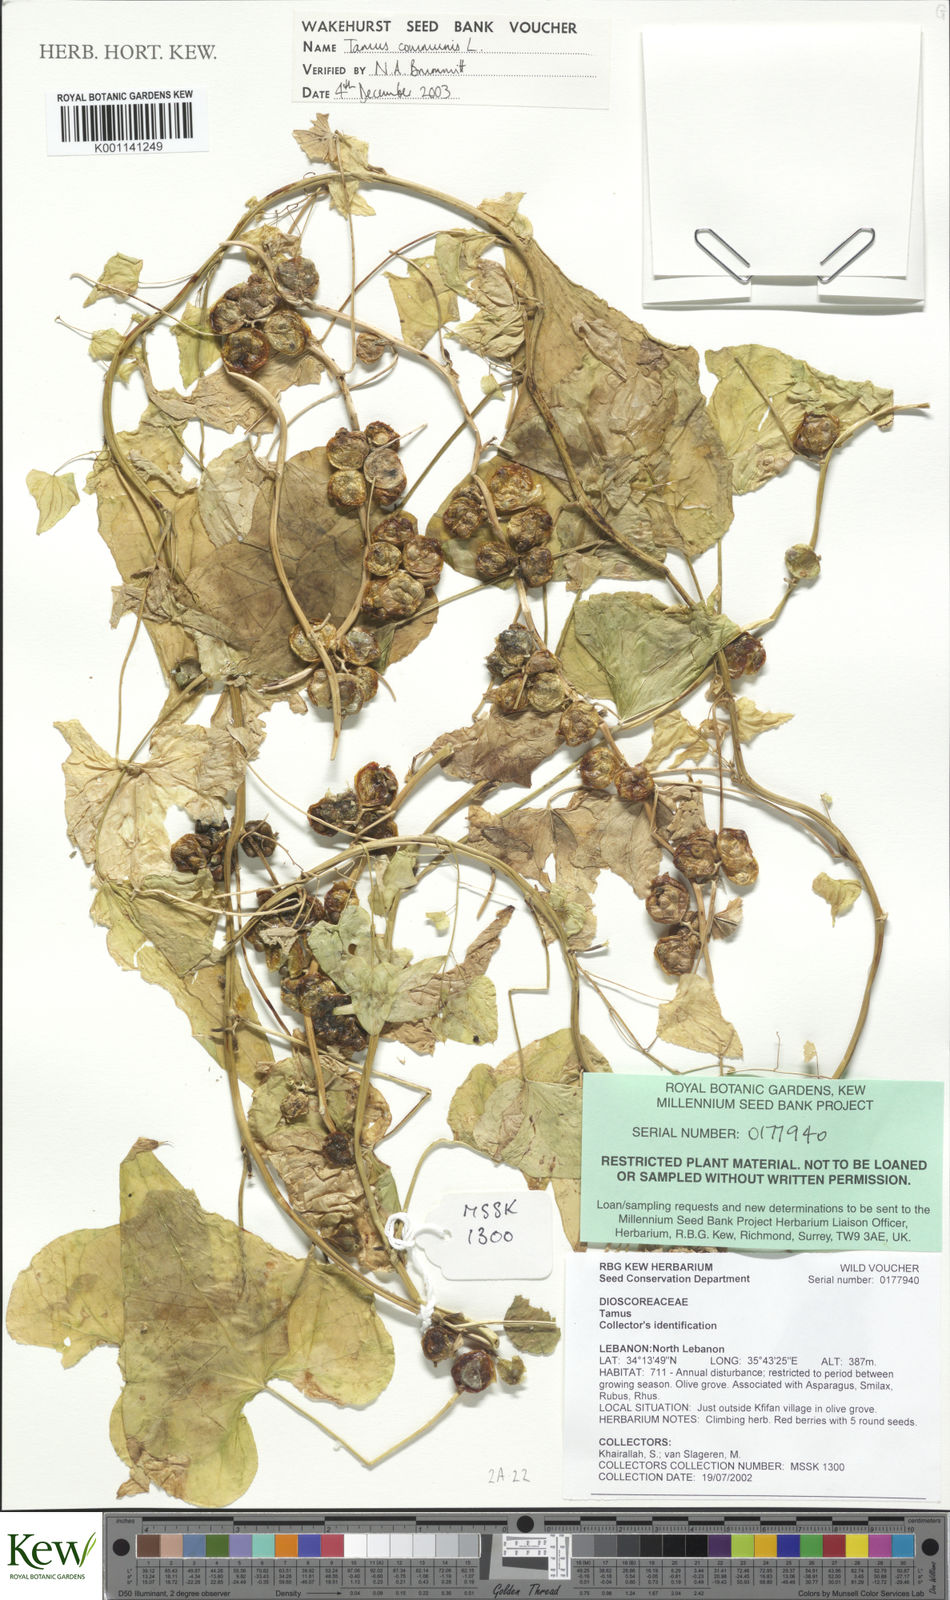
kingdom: Plantae
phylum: Tracheophyta
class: Liliopsida
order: Dioscoreales
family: Dioscoreaceae
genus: Dioscorea
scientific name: Dioscorea communis
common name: Black-bindweed
